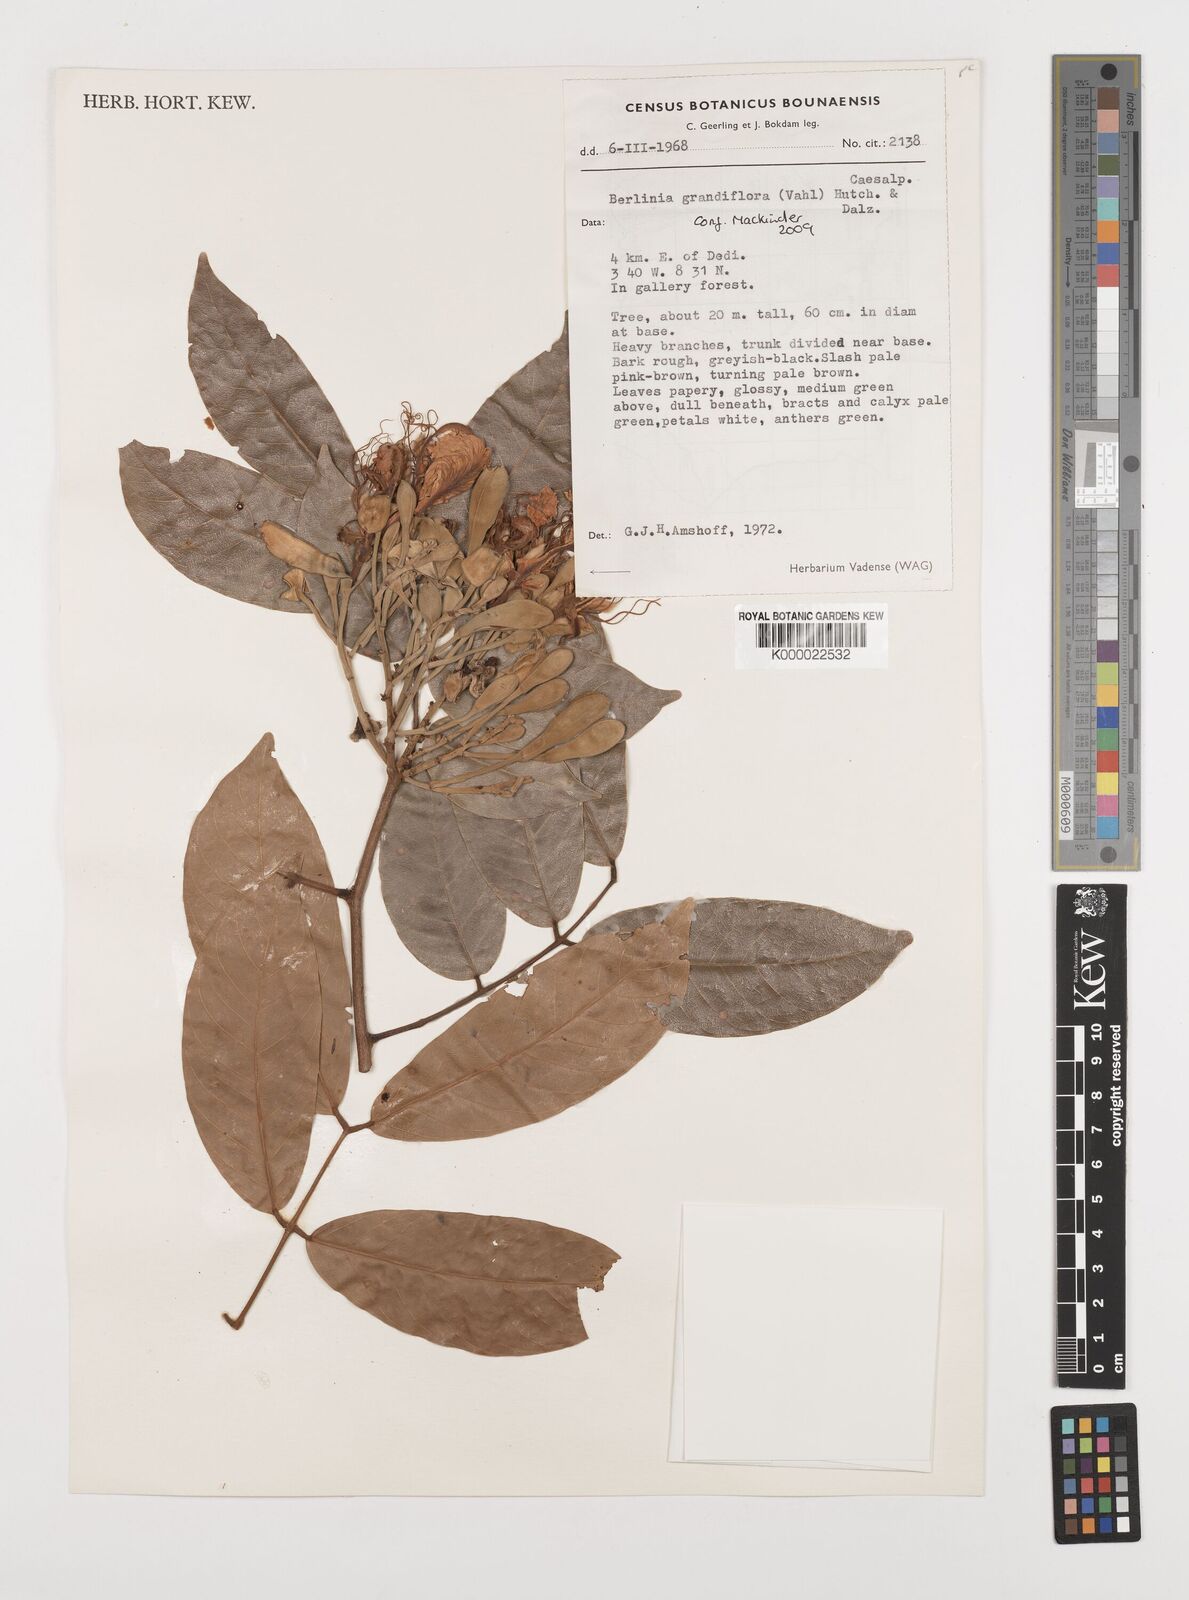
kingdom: Plantae
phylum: Tracheophyta
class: Magnoliopsida
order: Fabales
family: Fabaceae
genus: Berlinia
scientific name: Berlinia grandiflora
